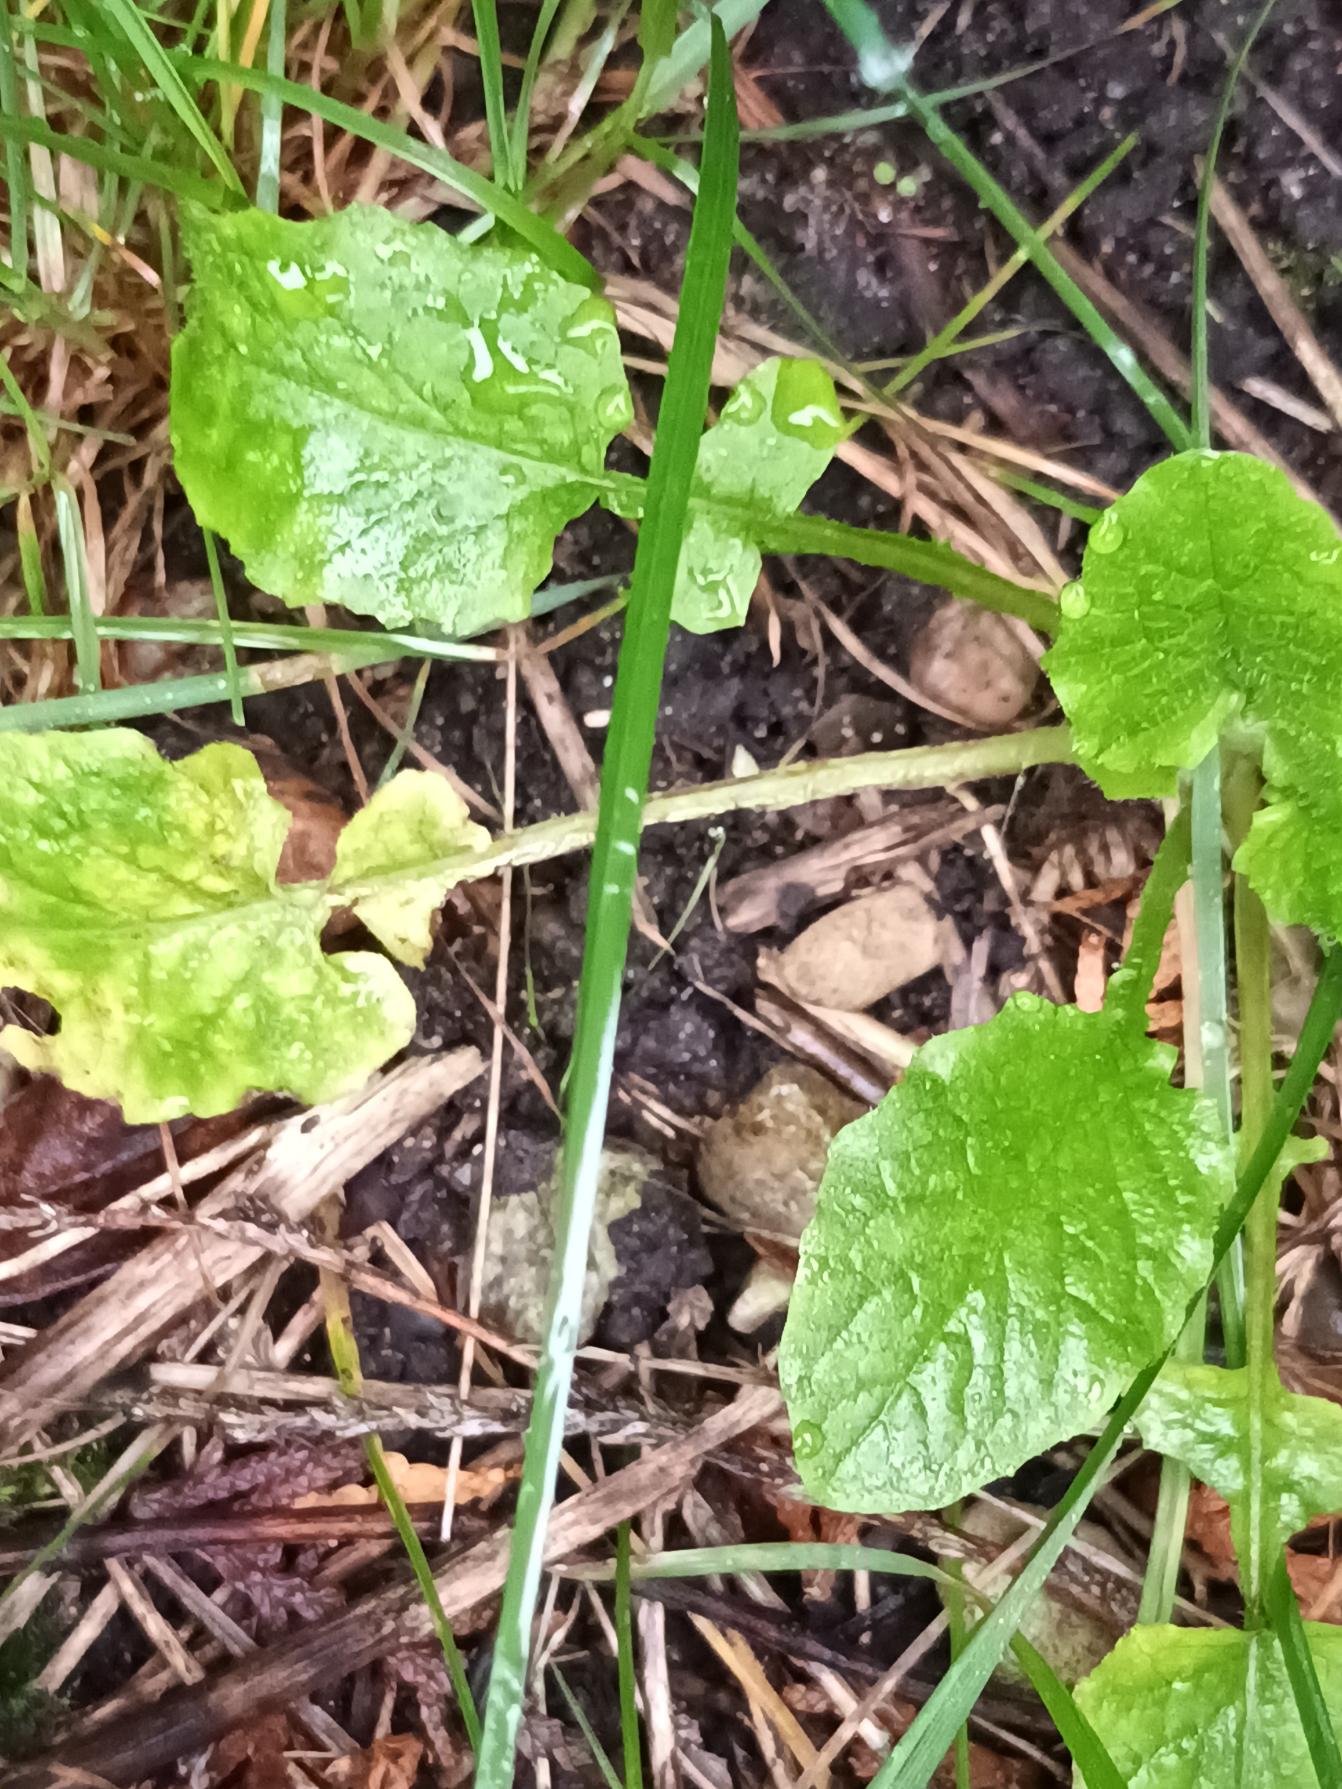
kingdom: Plantae
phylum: Tracheophyta
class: Magnoliopsida
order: Asterales
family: Asteraceae
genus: Lapsana
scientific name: Lapsana communis
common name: Haremad
